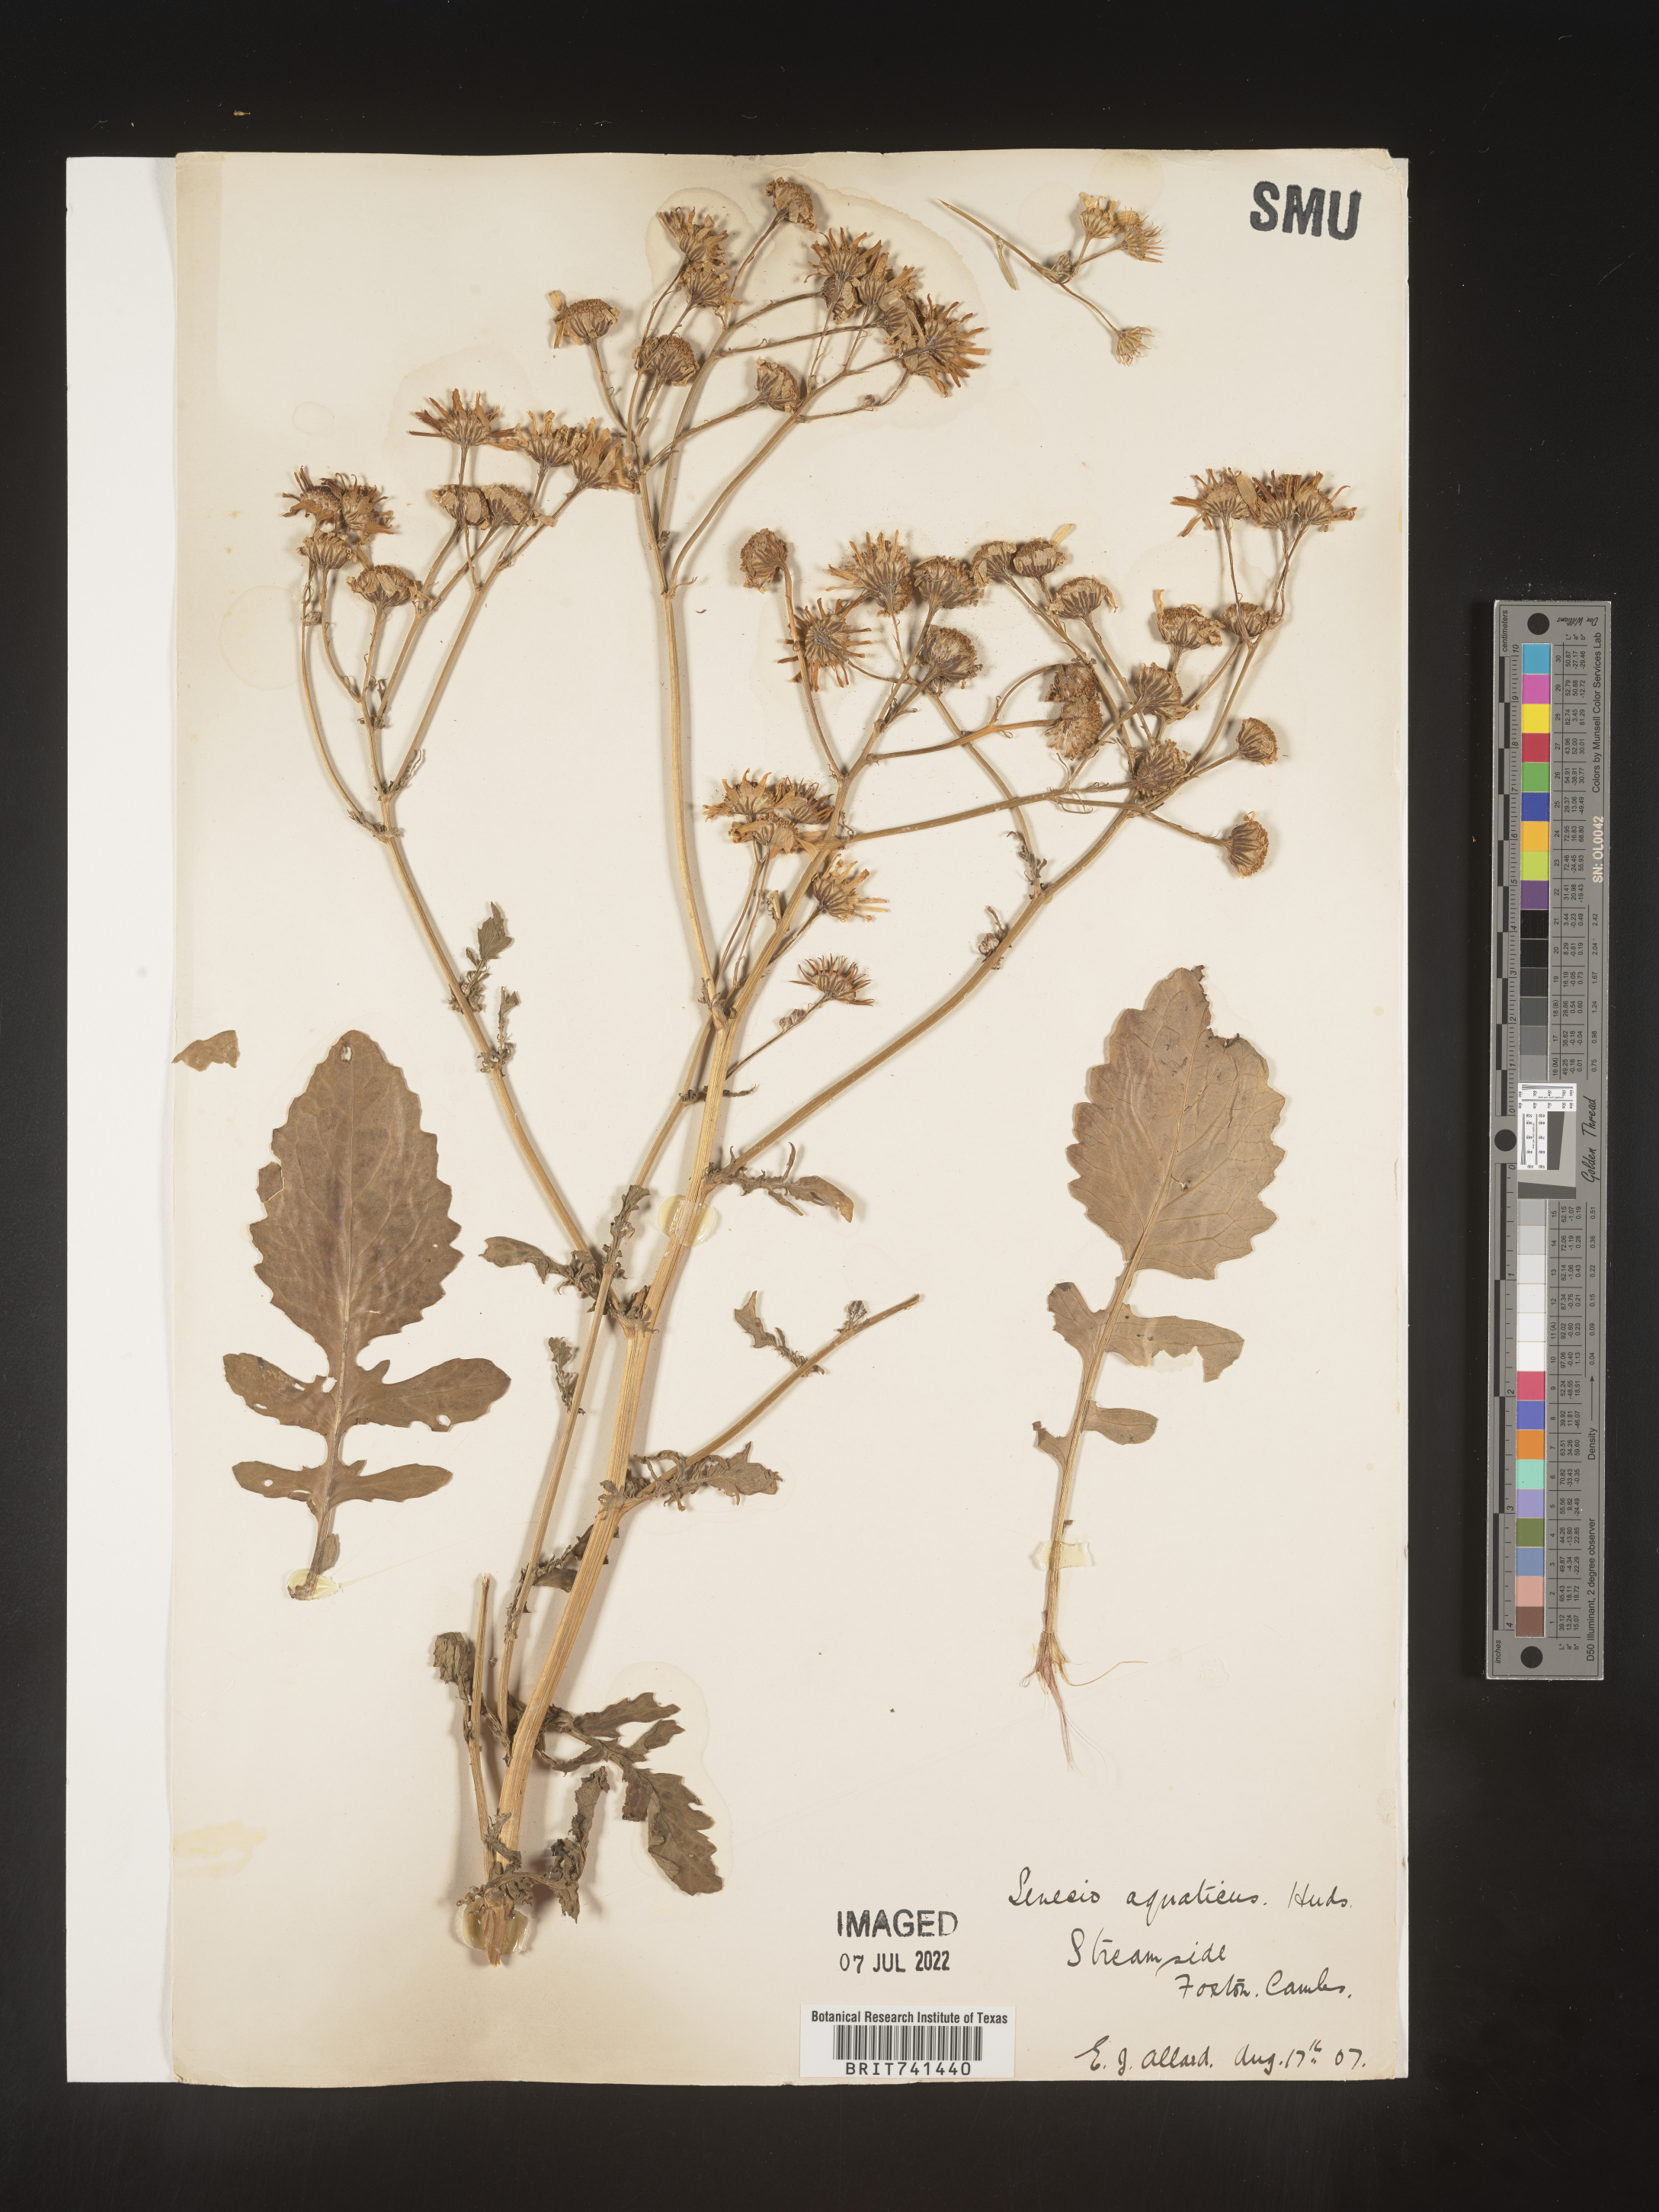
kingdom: Plantae
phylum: Tracheophyta
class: Magnoliopsida
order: Asterales
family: Asteraceae
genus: Senecio
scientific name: Senecio
